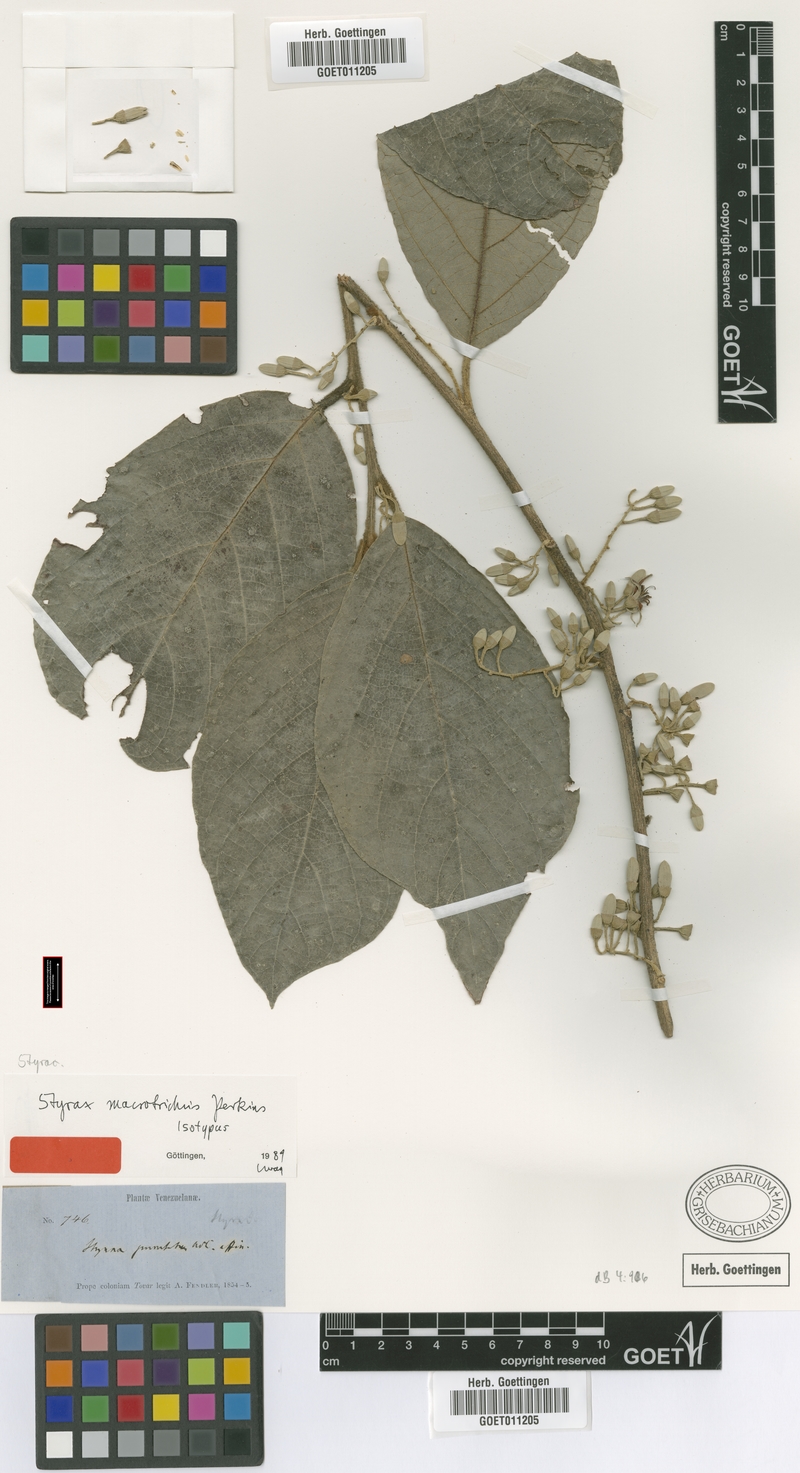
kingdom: Plantae
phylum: Tracheophyta
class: Magnoliopsida
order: Ericales
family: Styracaceae
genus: Styrax
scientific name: Styrax trichocalyx
